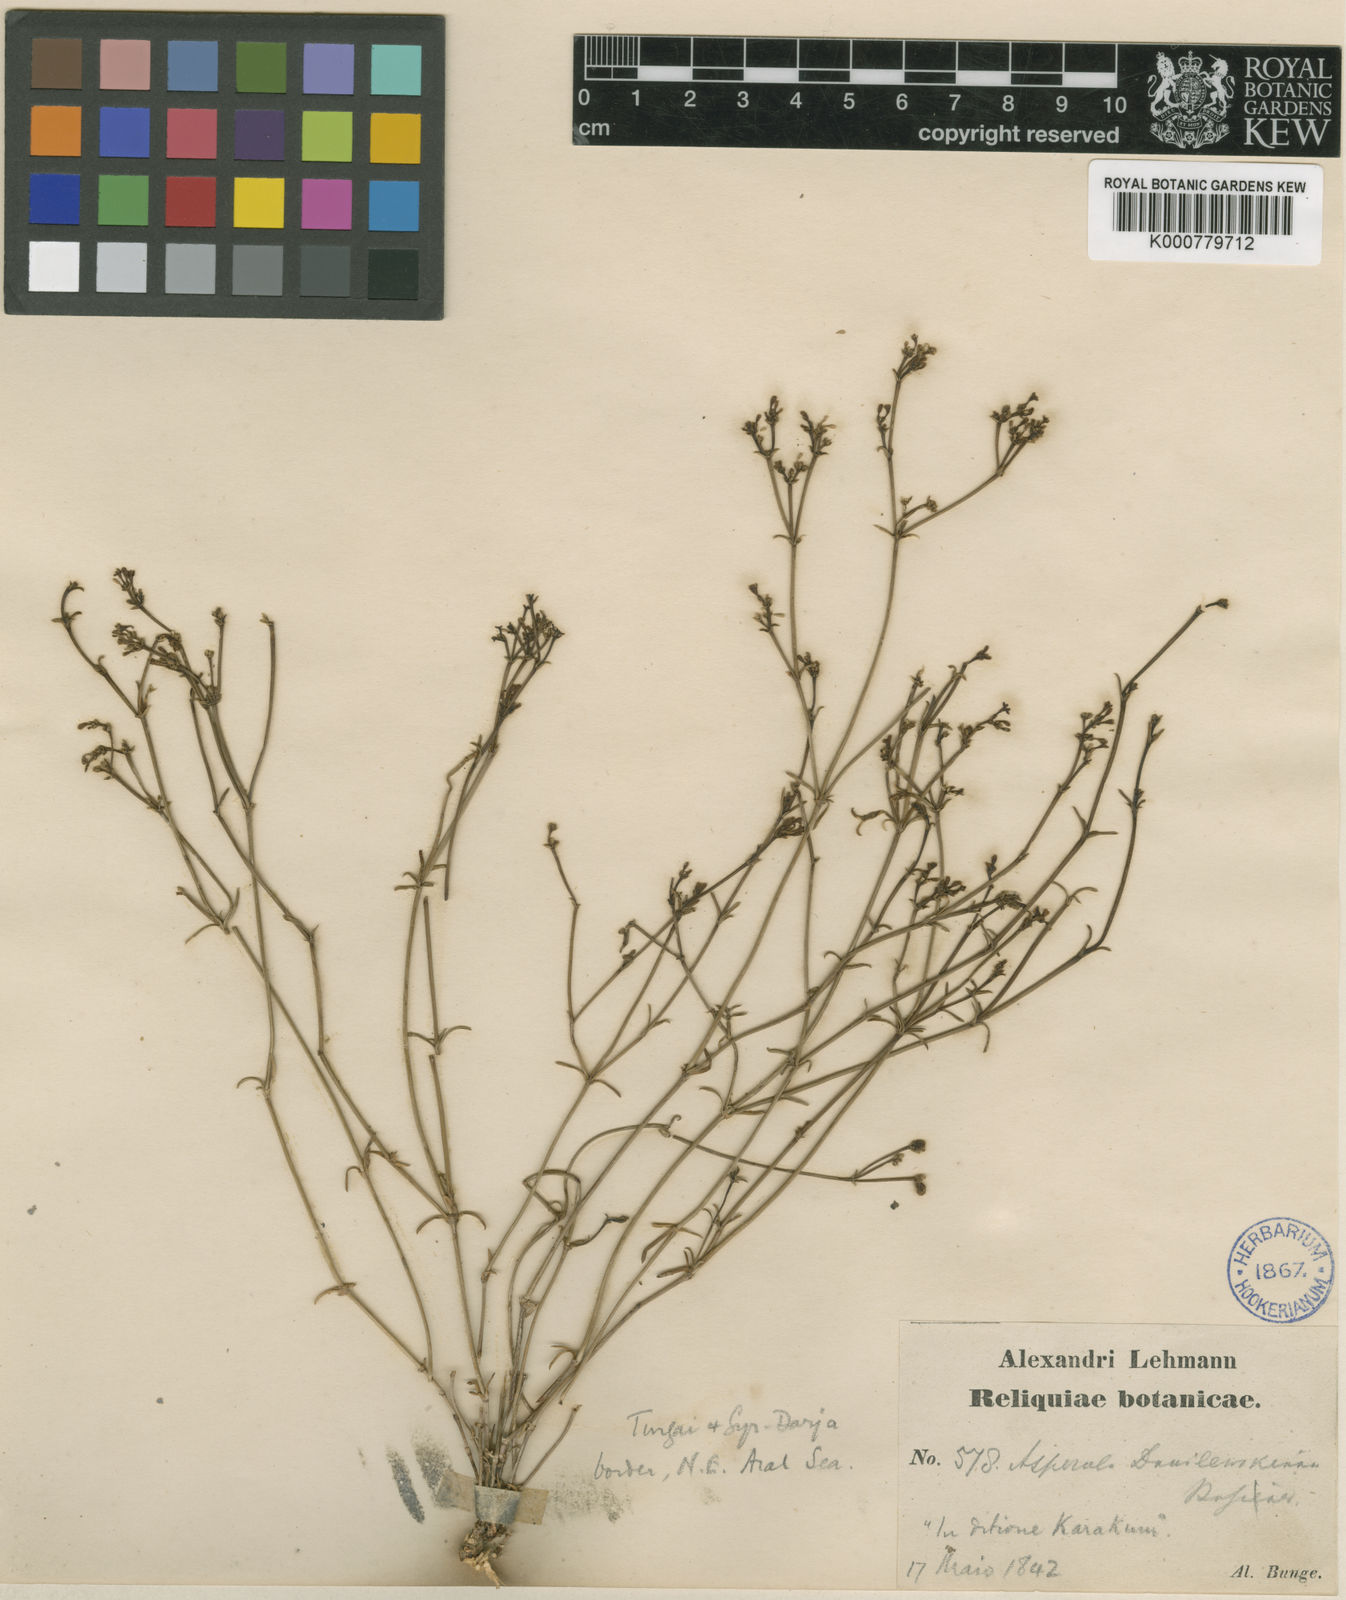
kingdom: Plantae
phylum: Tracheophyta
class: Magnoliopsida
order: Gentianales
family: Rubiaceae
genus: Asperula
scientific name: Asperula
